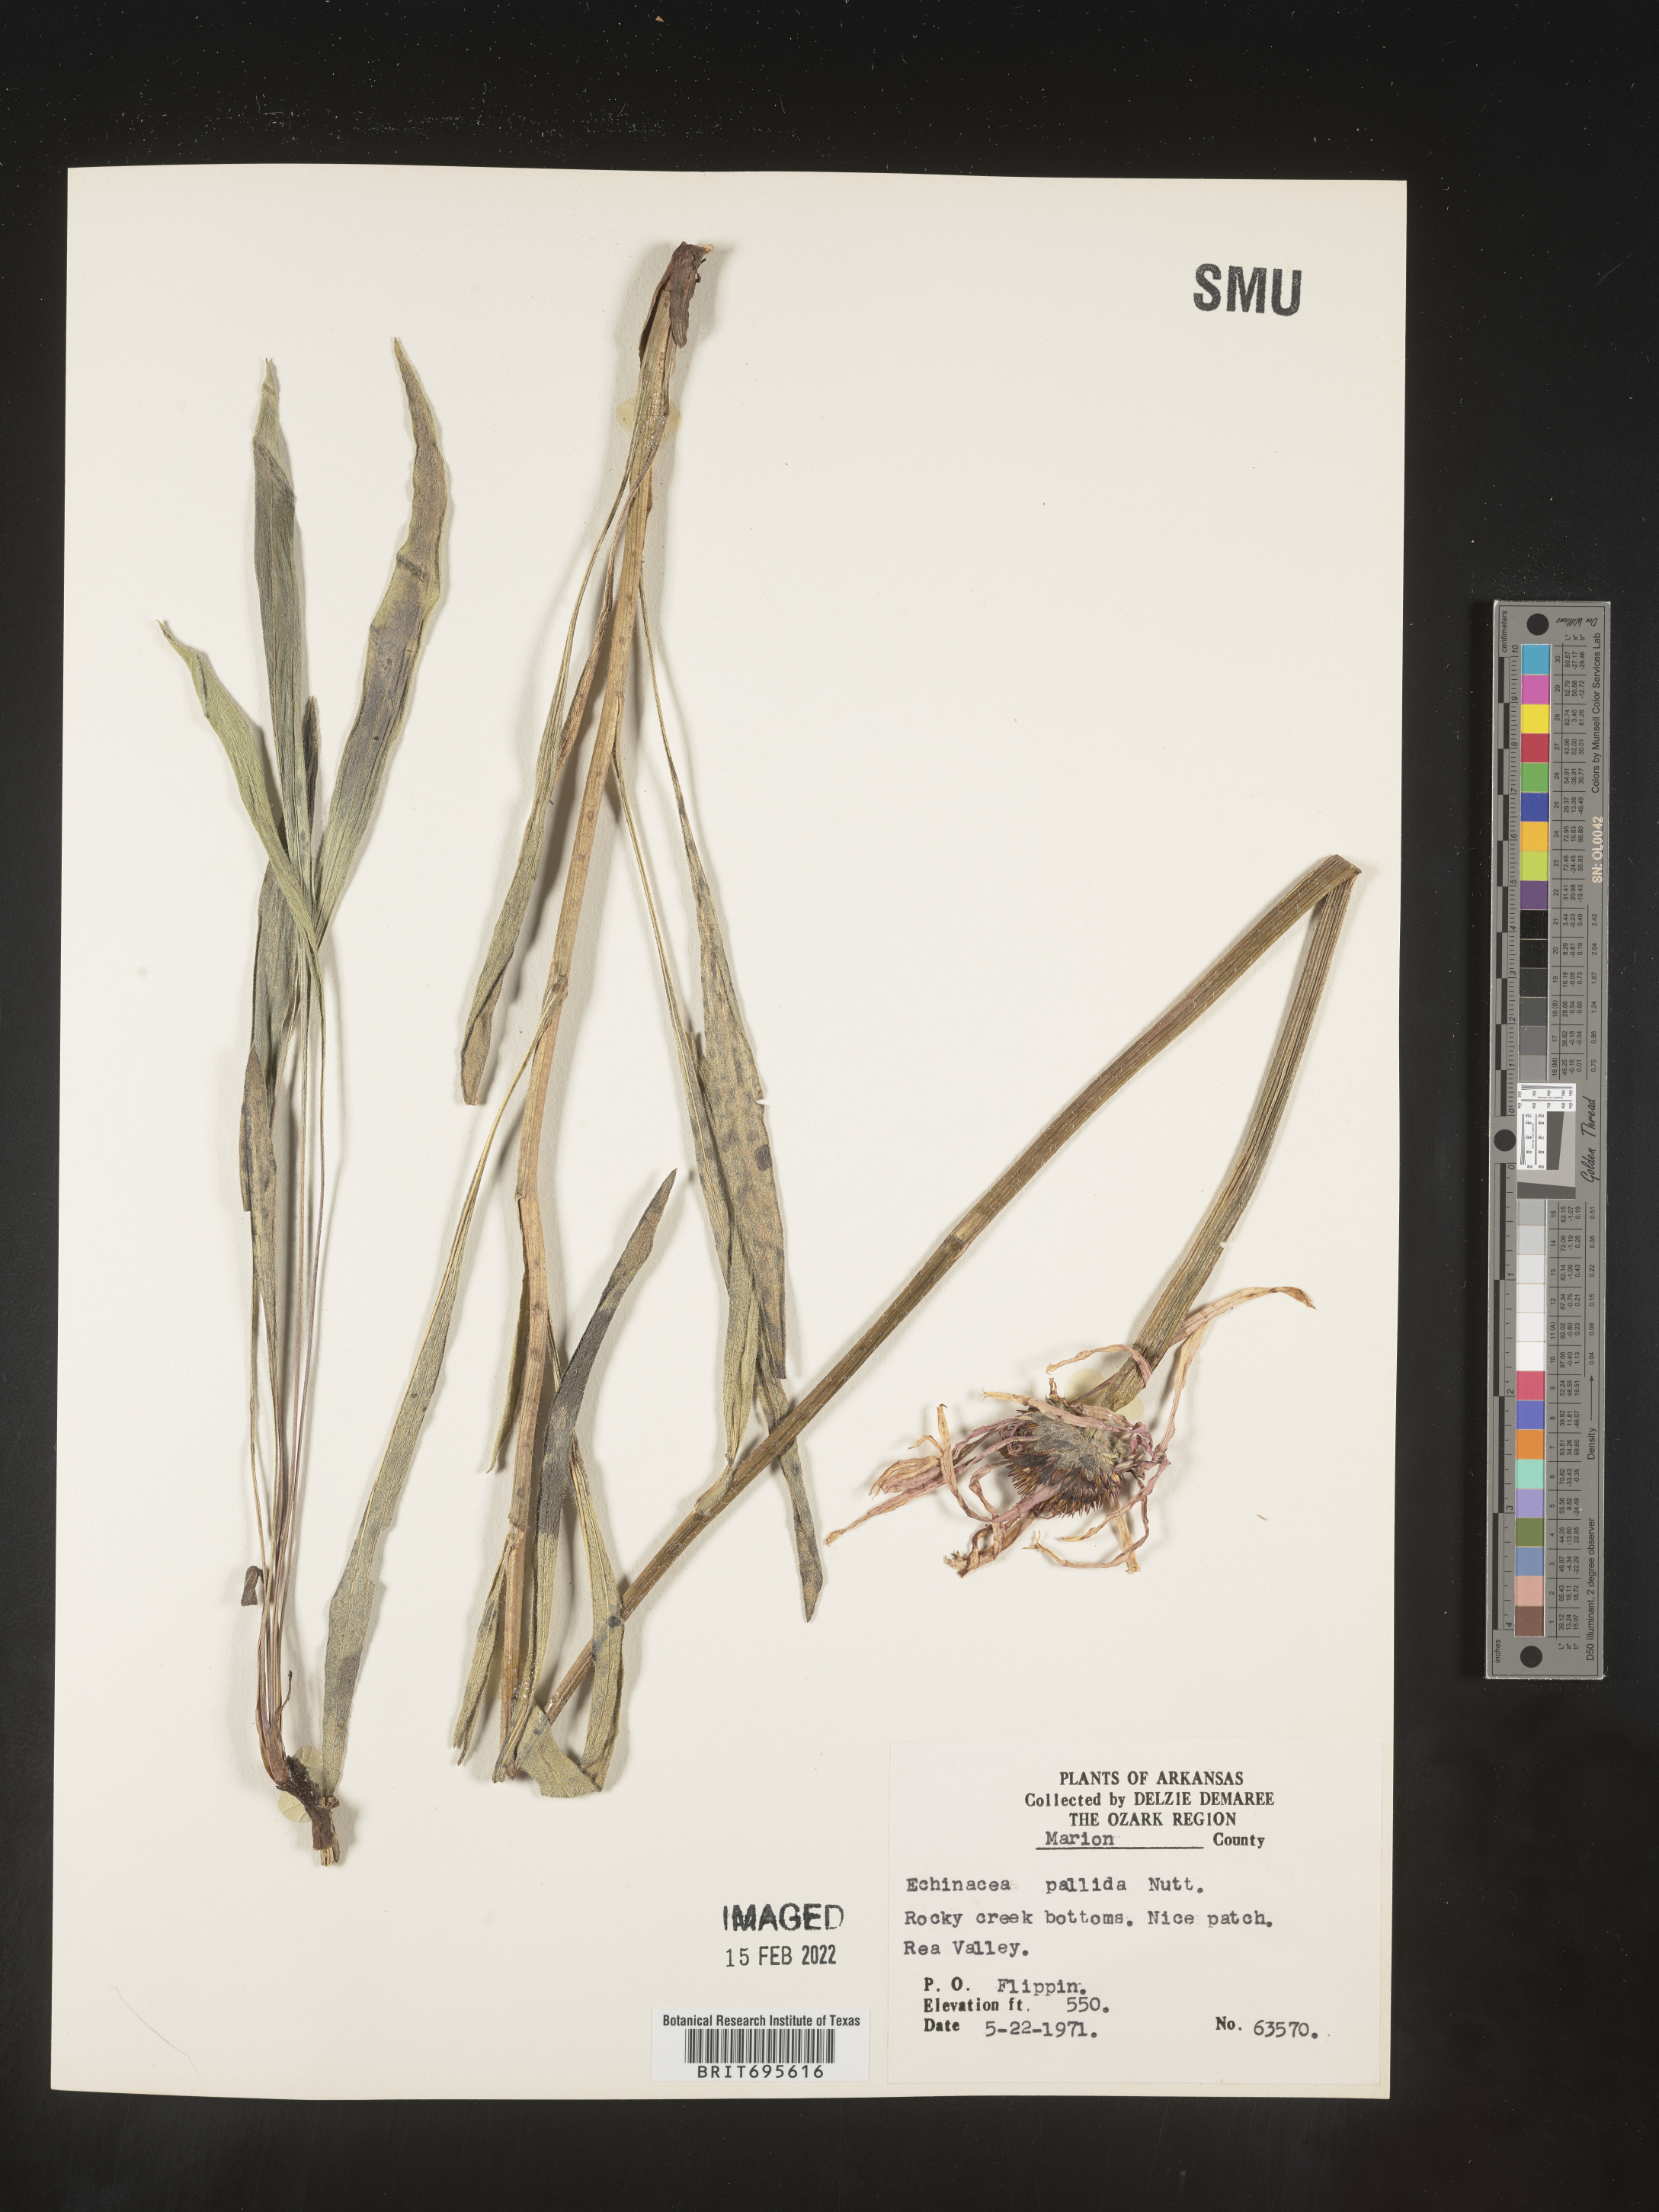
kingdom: Plantae
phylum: Tracheophyta
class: Magnoliopsida
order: Asterales
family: Asteraceae
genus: Echinacea
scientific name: Echinacea pallida
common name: Pale echinacea
